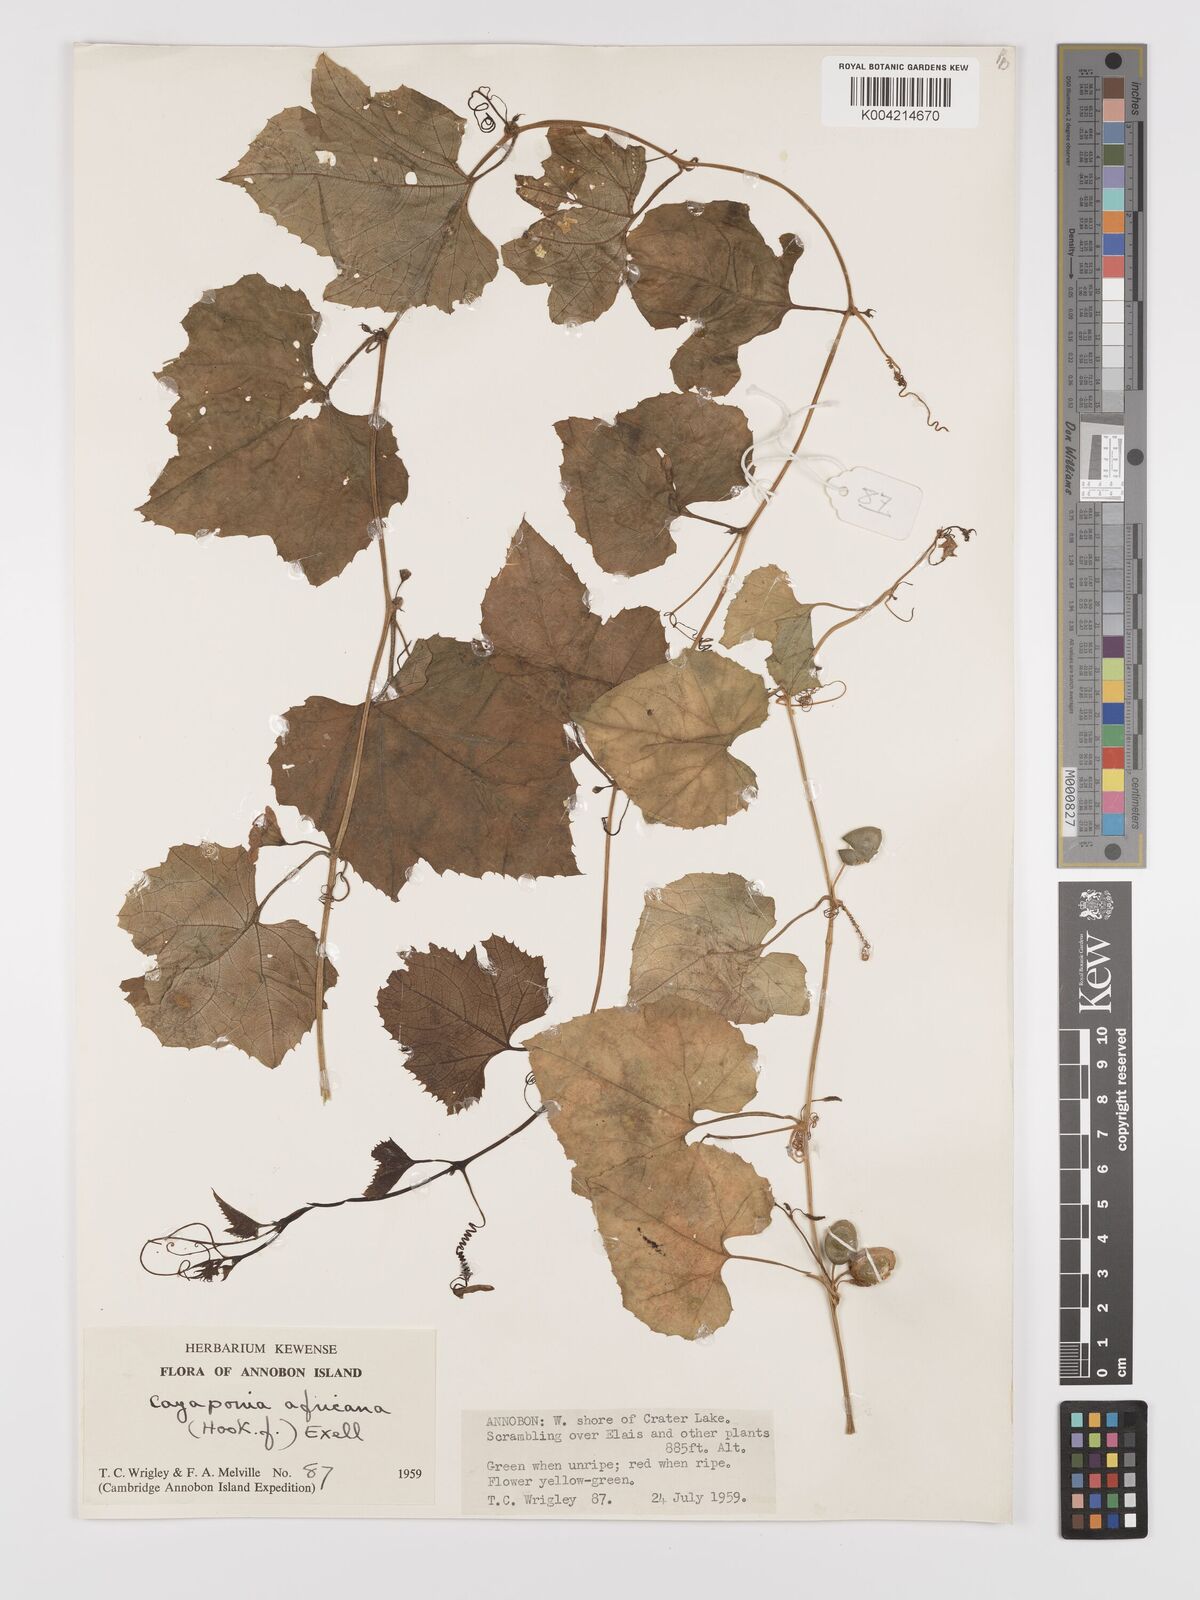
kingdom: Plantae
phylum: Tracheophyta
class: Magnoliopsida
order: Cucurbitales
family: Cucurbitaceae
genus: Cayaponia
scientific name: Cayaponia africana
